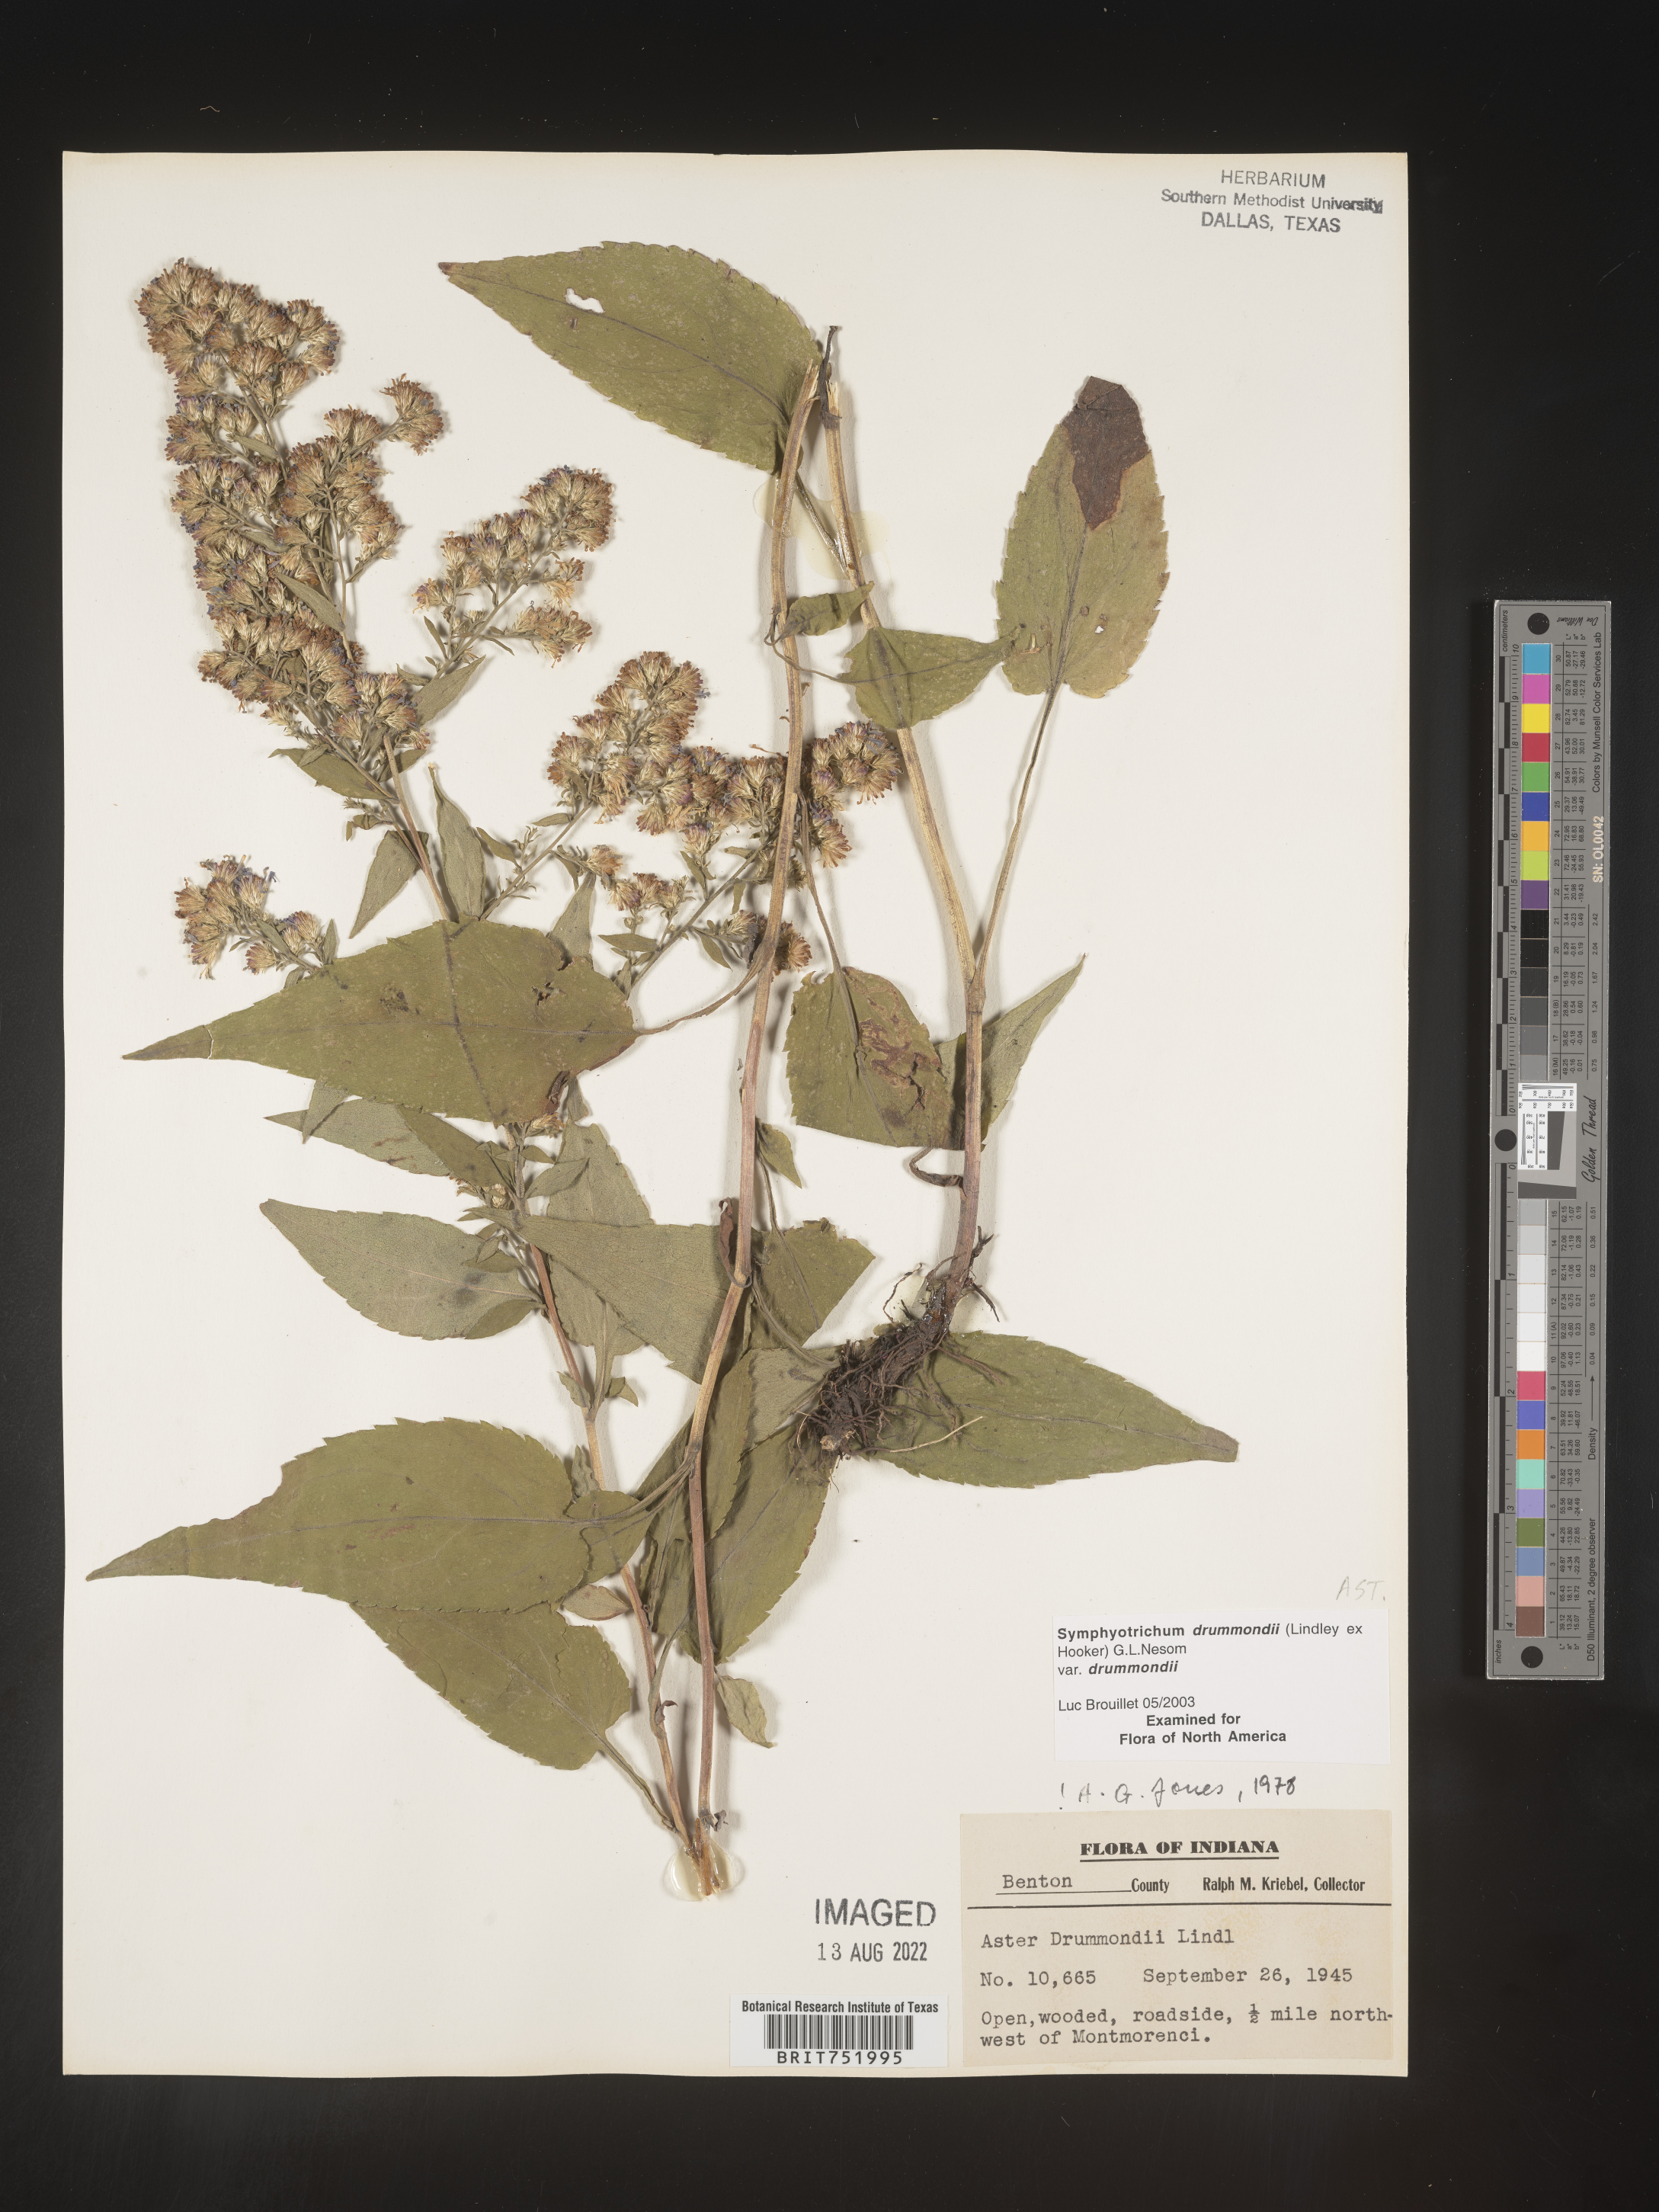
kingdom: Plantae
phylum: Tracheophyta
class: Magnoliopsida
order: Asterales
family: Asteraceae
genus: Symphyotrichum
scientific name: Symphyotrichum drummondii
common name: Drummond's aster
